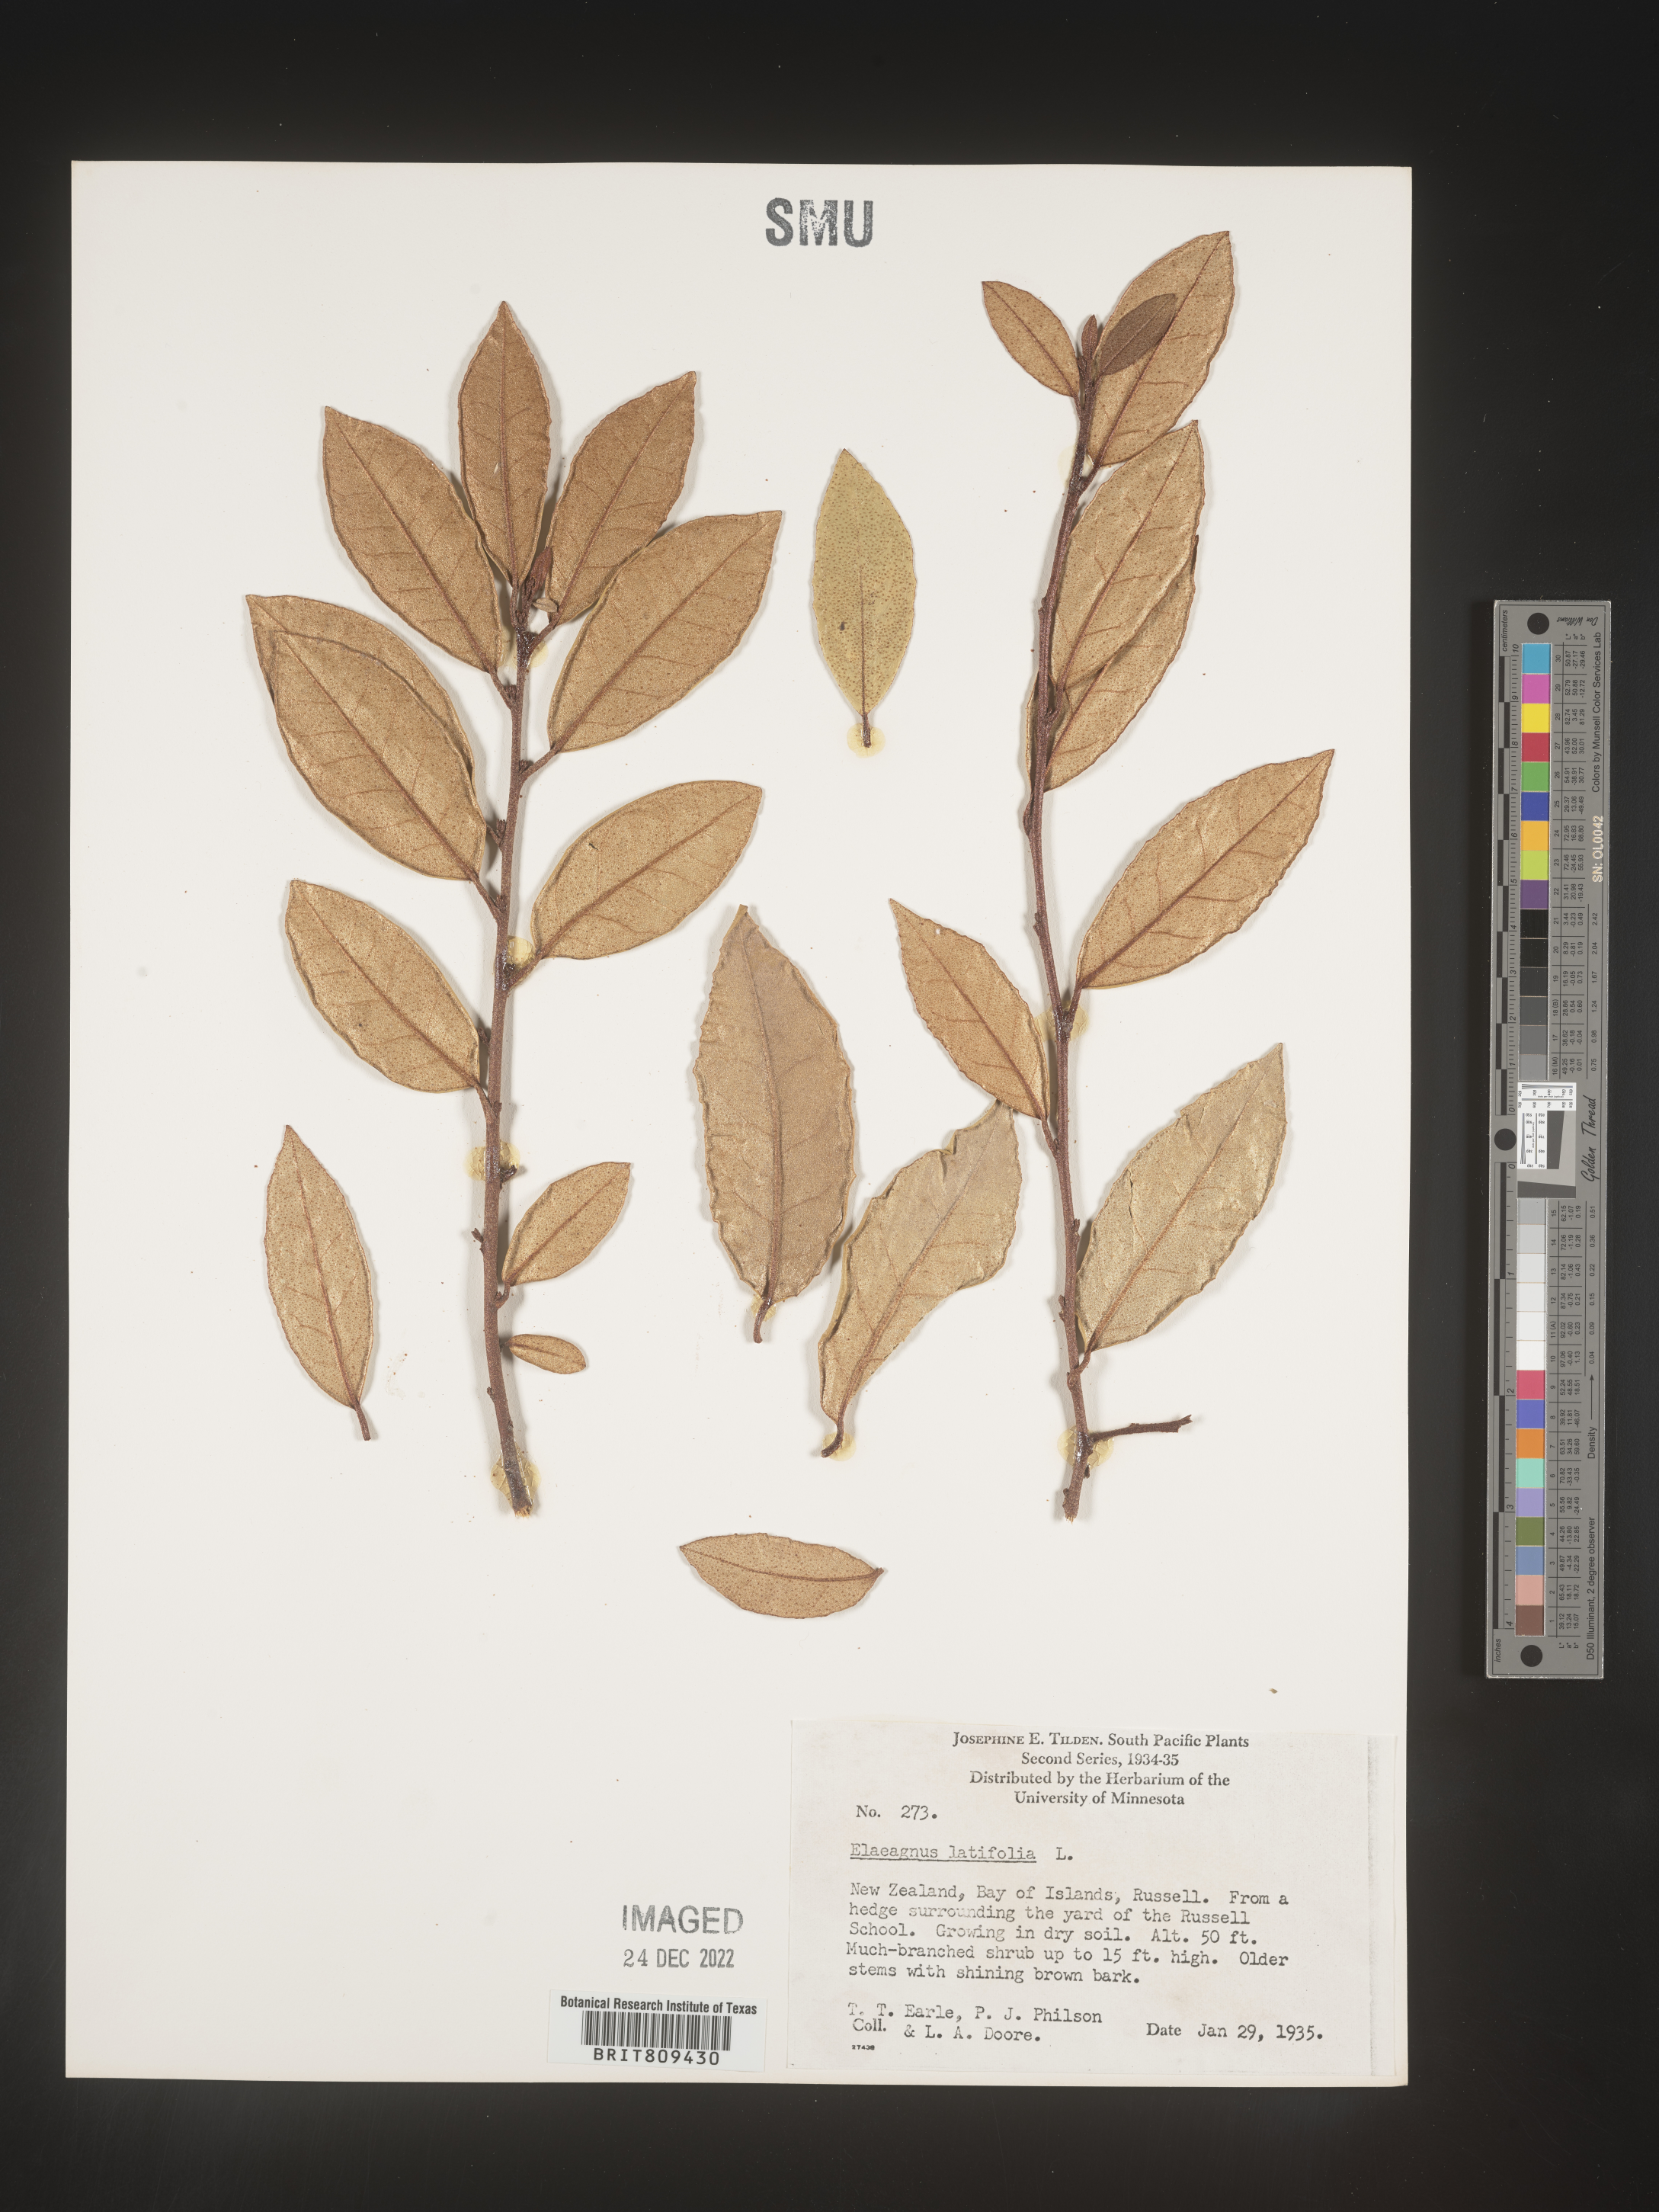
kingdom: Plantae
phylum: Tracheophyta
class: Magnoliopsida
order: Rosales
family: Elaeagnaceae
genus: Elaeagnus
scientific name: Elaeagnus
